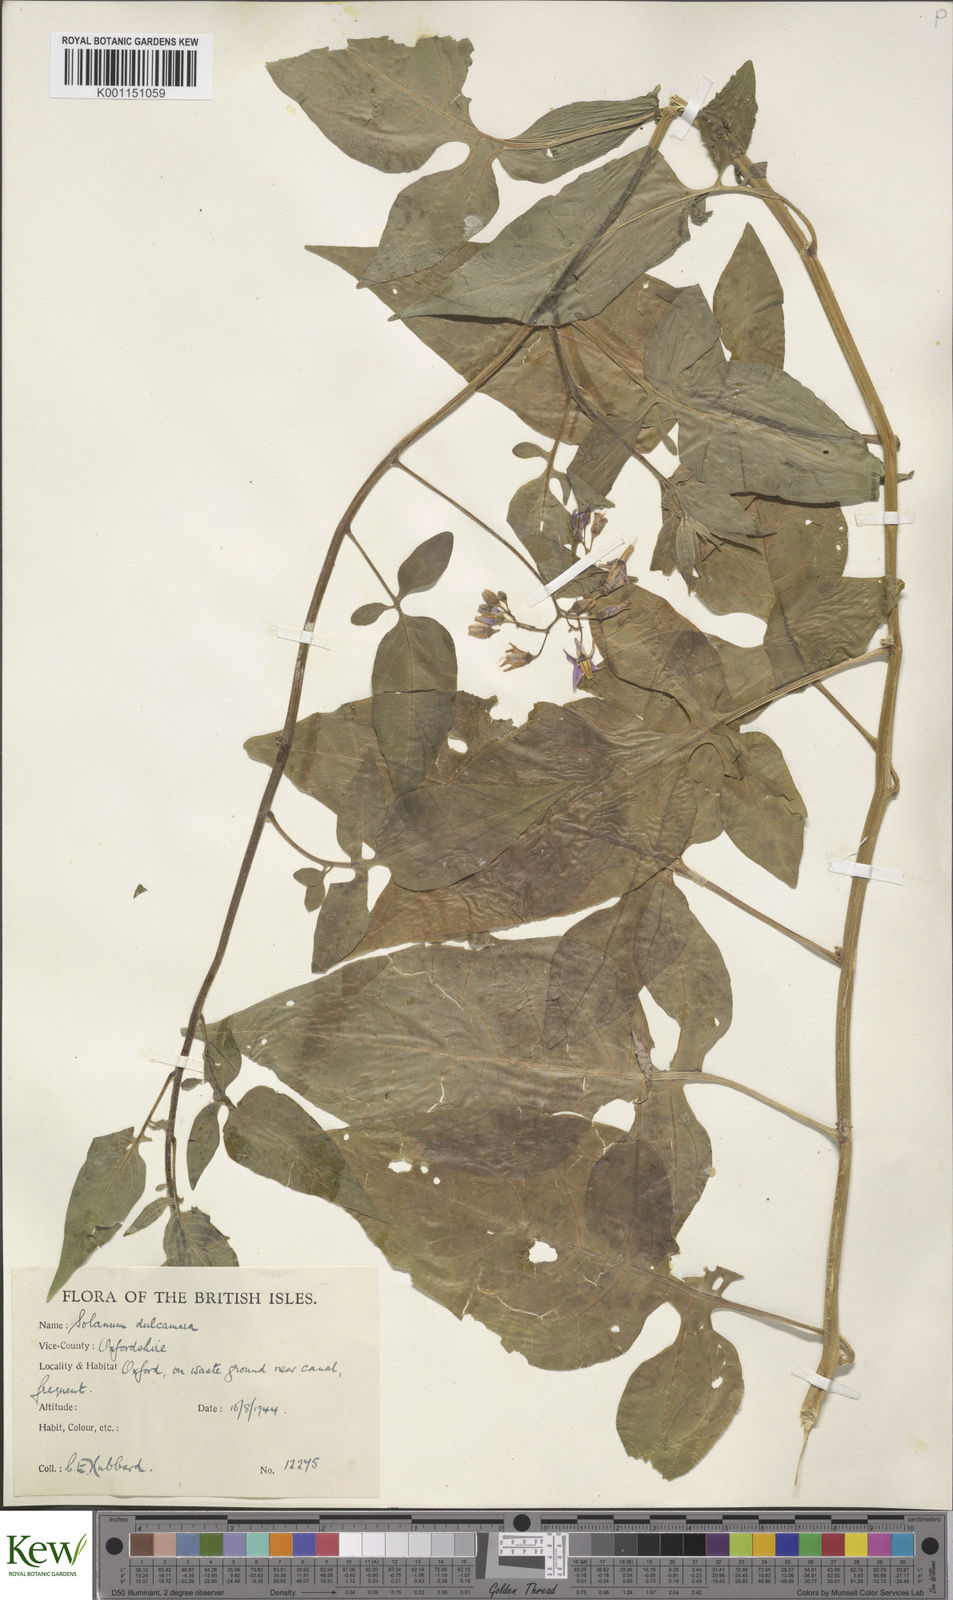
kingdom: Plantae
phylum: Tracheophyta
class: Magnoliopsida
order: Solanales
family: Solanaceae
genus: Solanum
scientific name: Solanum dulcamara
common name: Climbing nightshade
